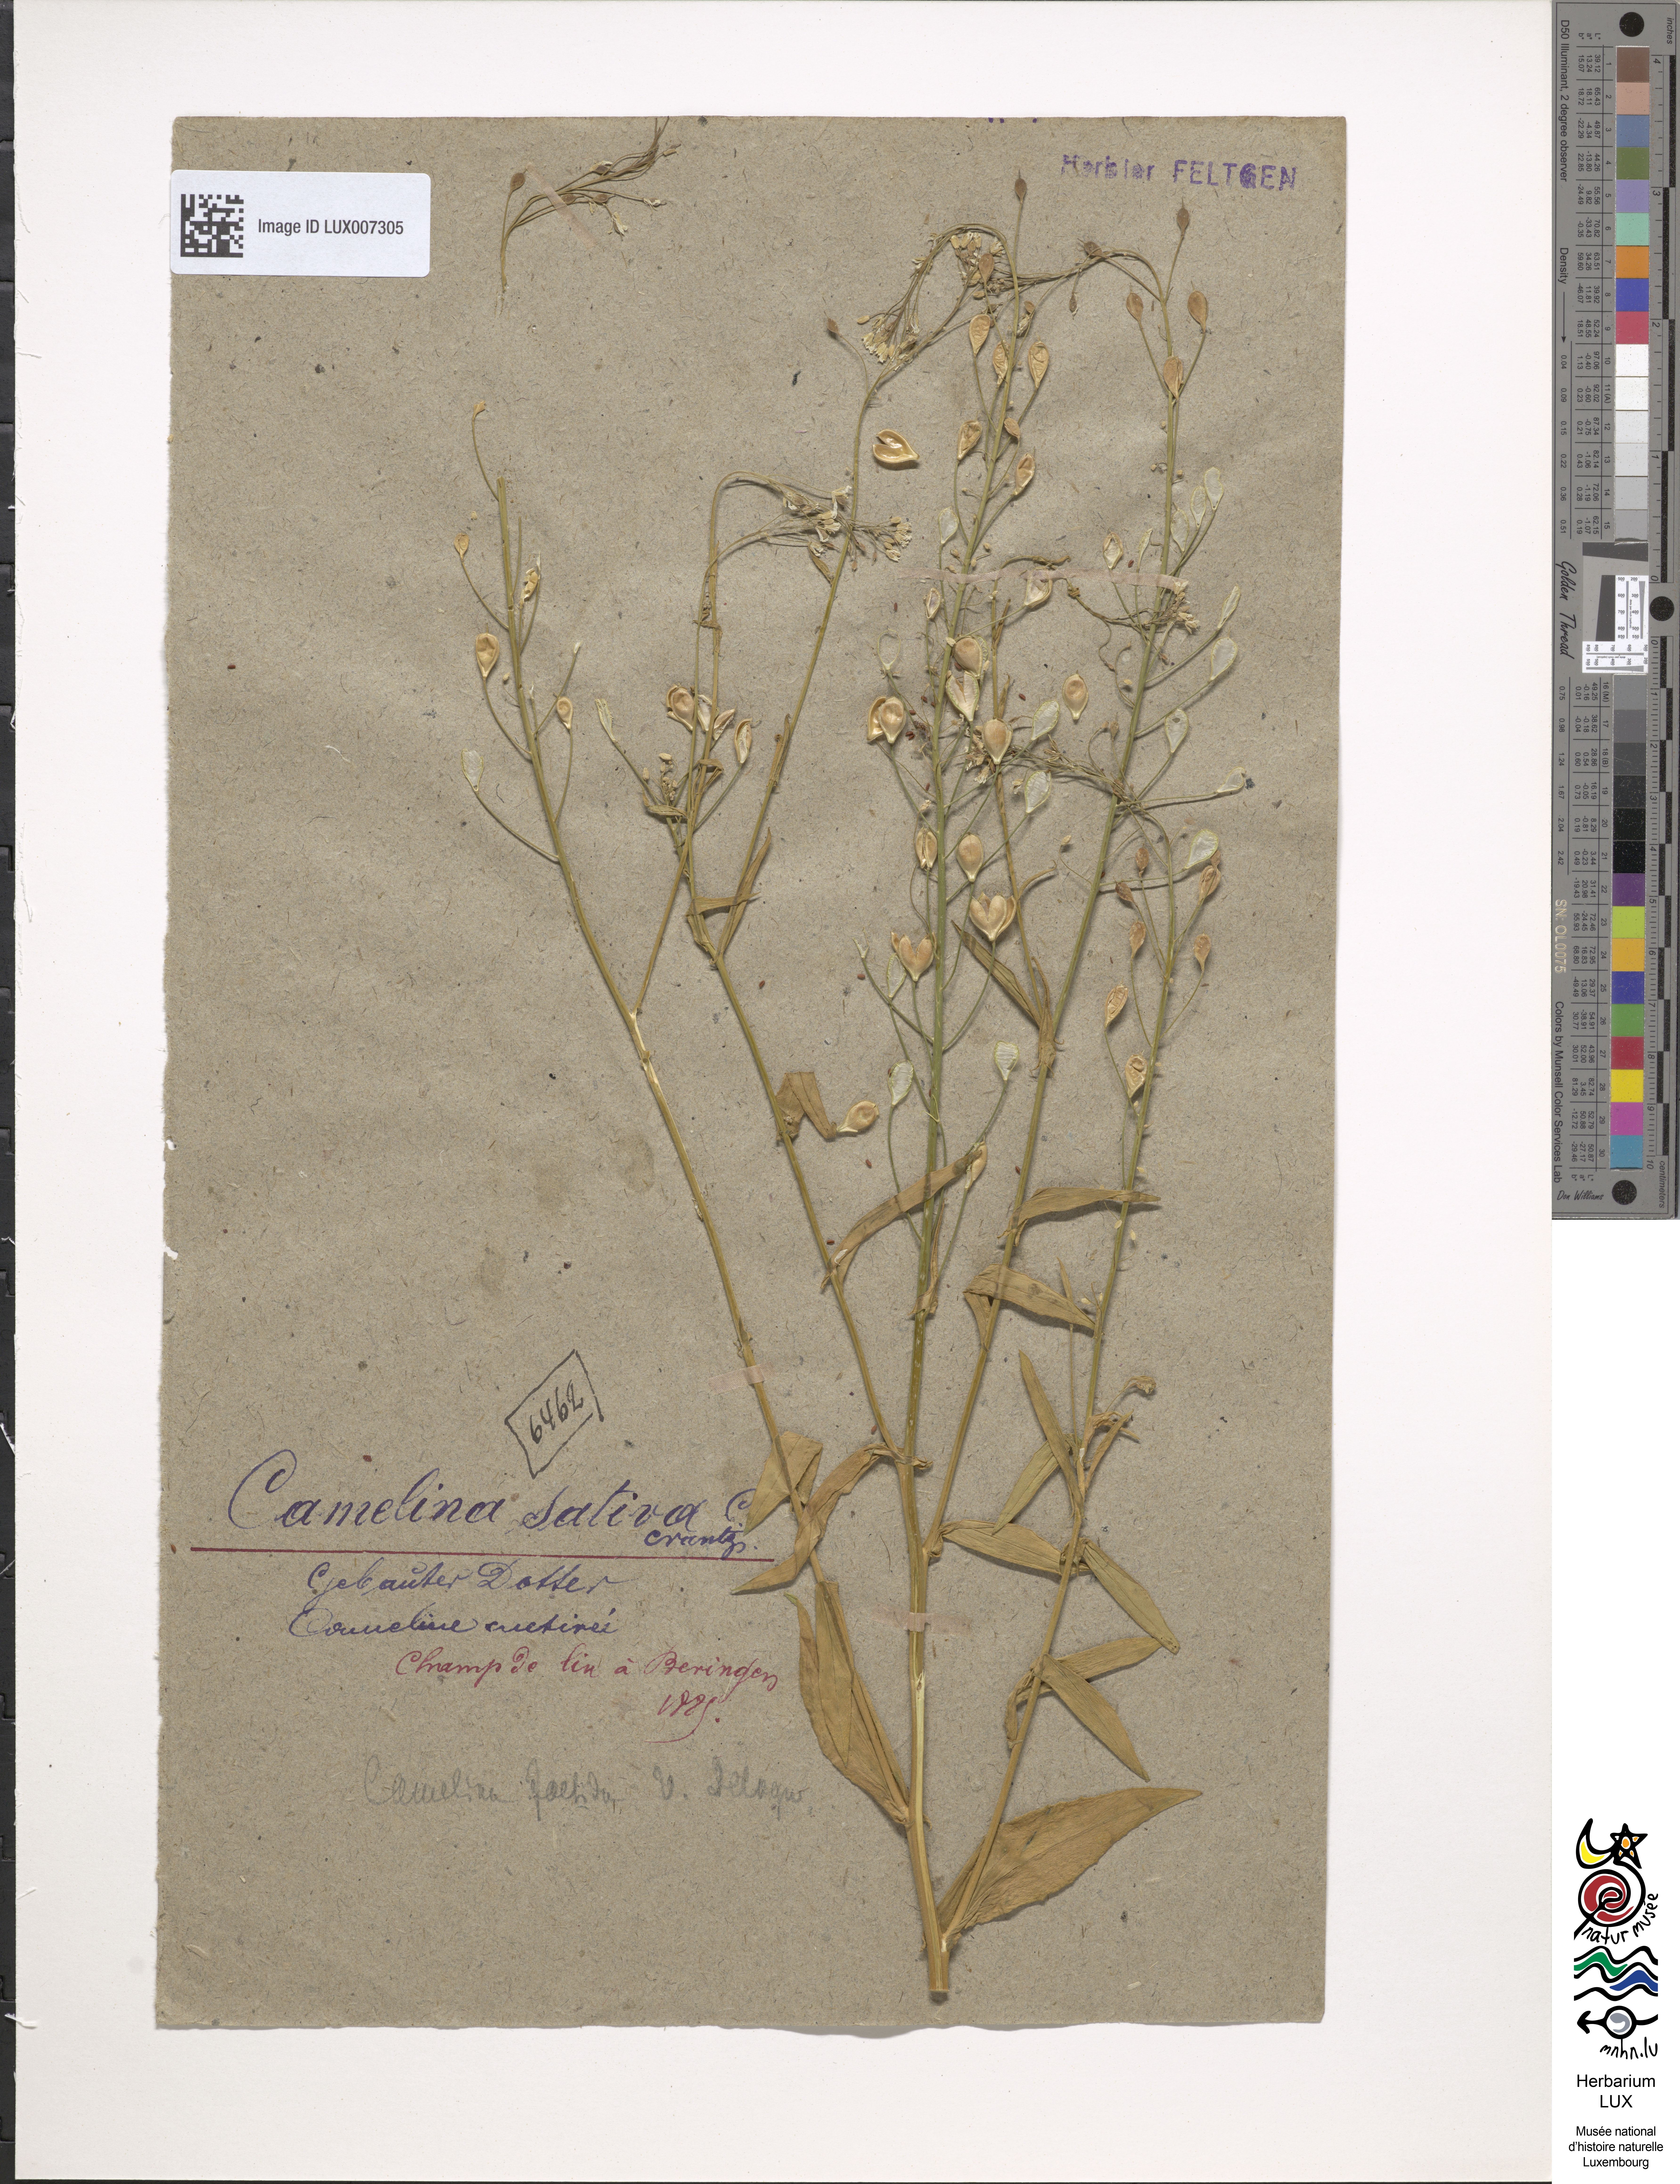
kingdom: Plantae
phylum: Tracheophyta
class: Magnoliopsida
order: Brassicales
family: Brassicaceae
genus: Camelina
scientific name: Camelina sativa
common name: Gold-of-pleasure
